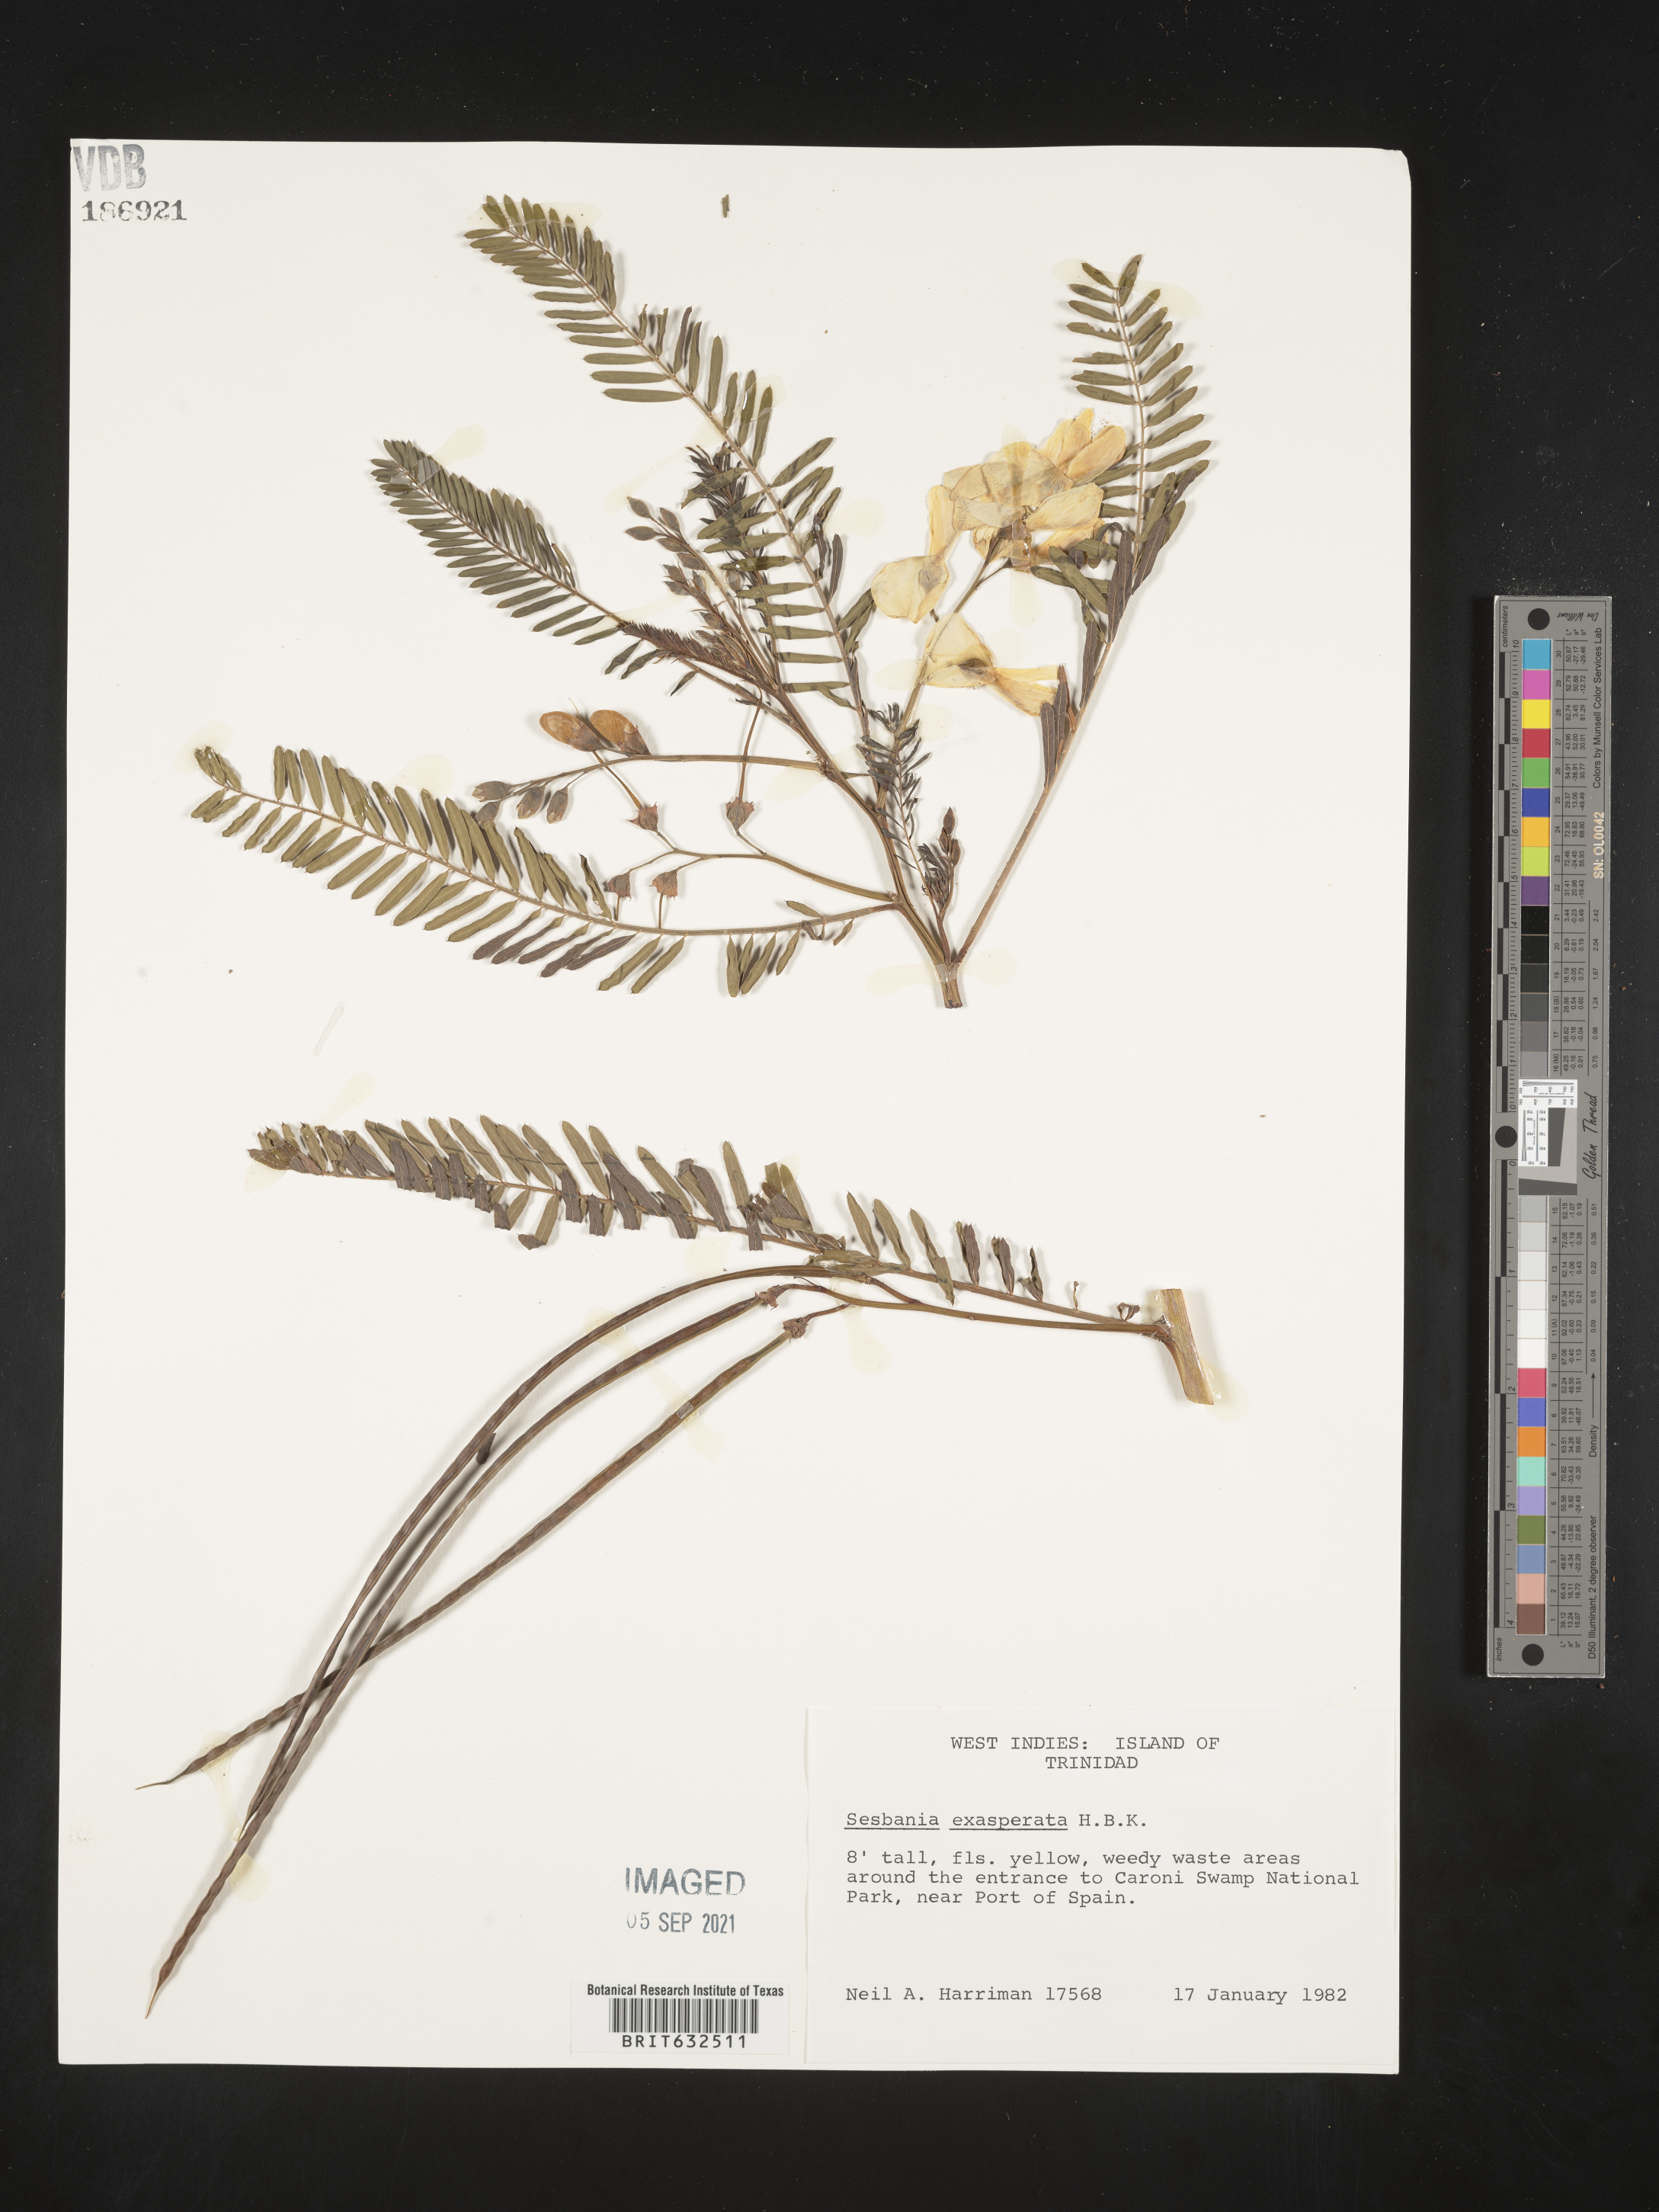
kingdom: Plantae
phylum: Tracheophyta
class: Magnoliopsida
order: Fabales
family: Fabaceae
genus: Sesbania
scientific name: Sesbania
